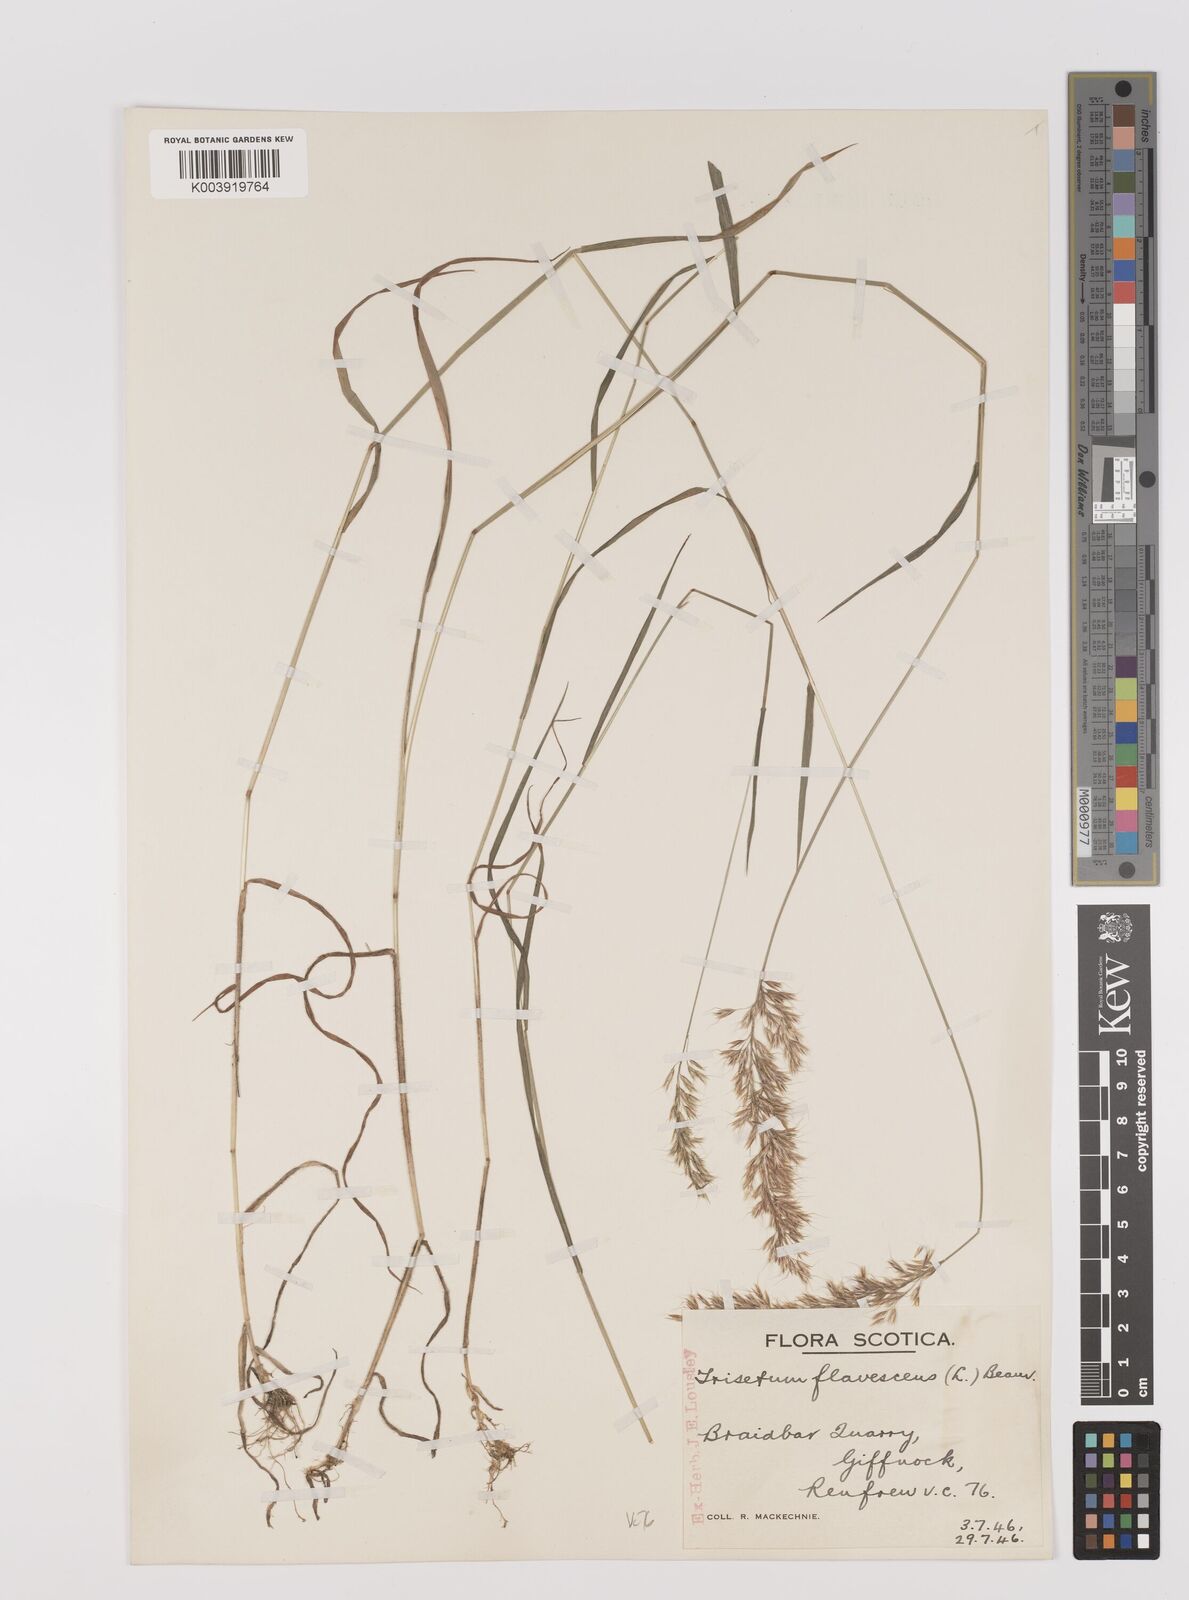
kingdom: Plantae
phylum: Tracheophyta
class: Liliopsida
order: Poales
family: Poaceae
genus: Trisetum
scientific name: Trisetum flavescens
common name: Yellow oat-grass
